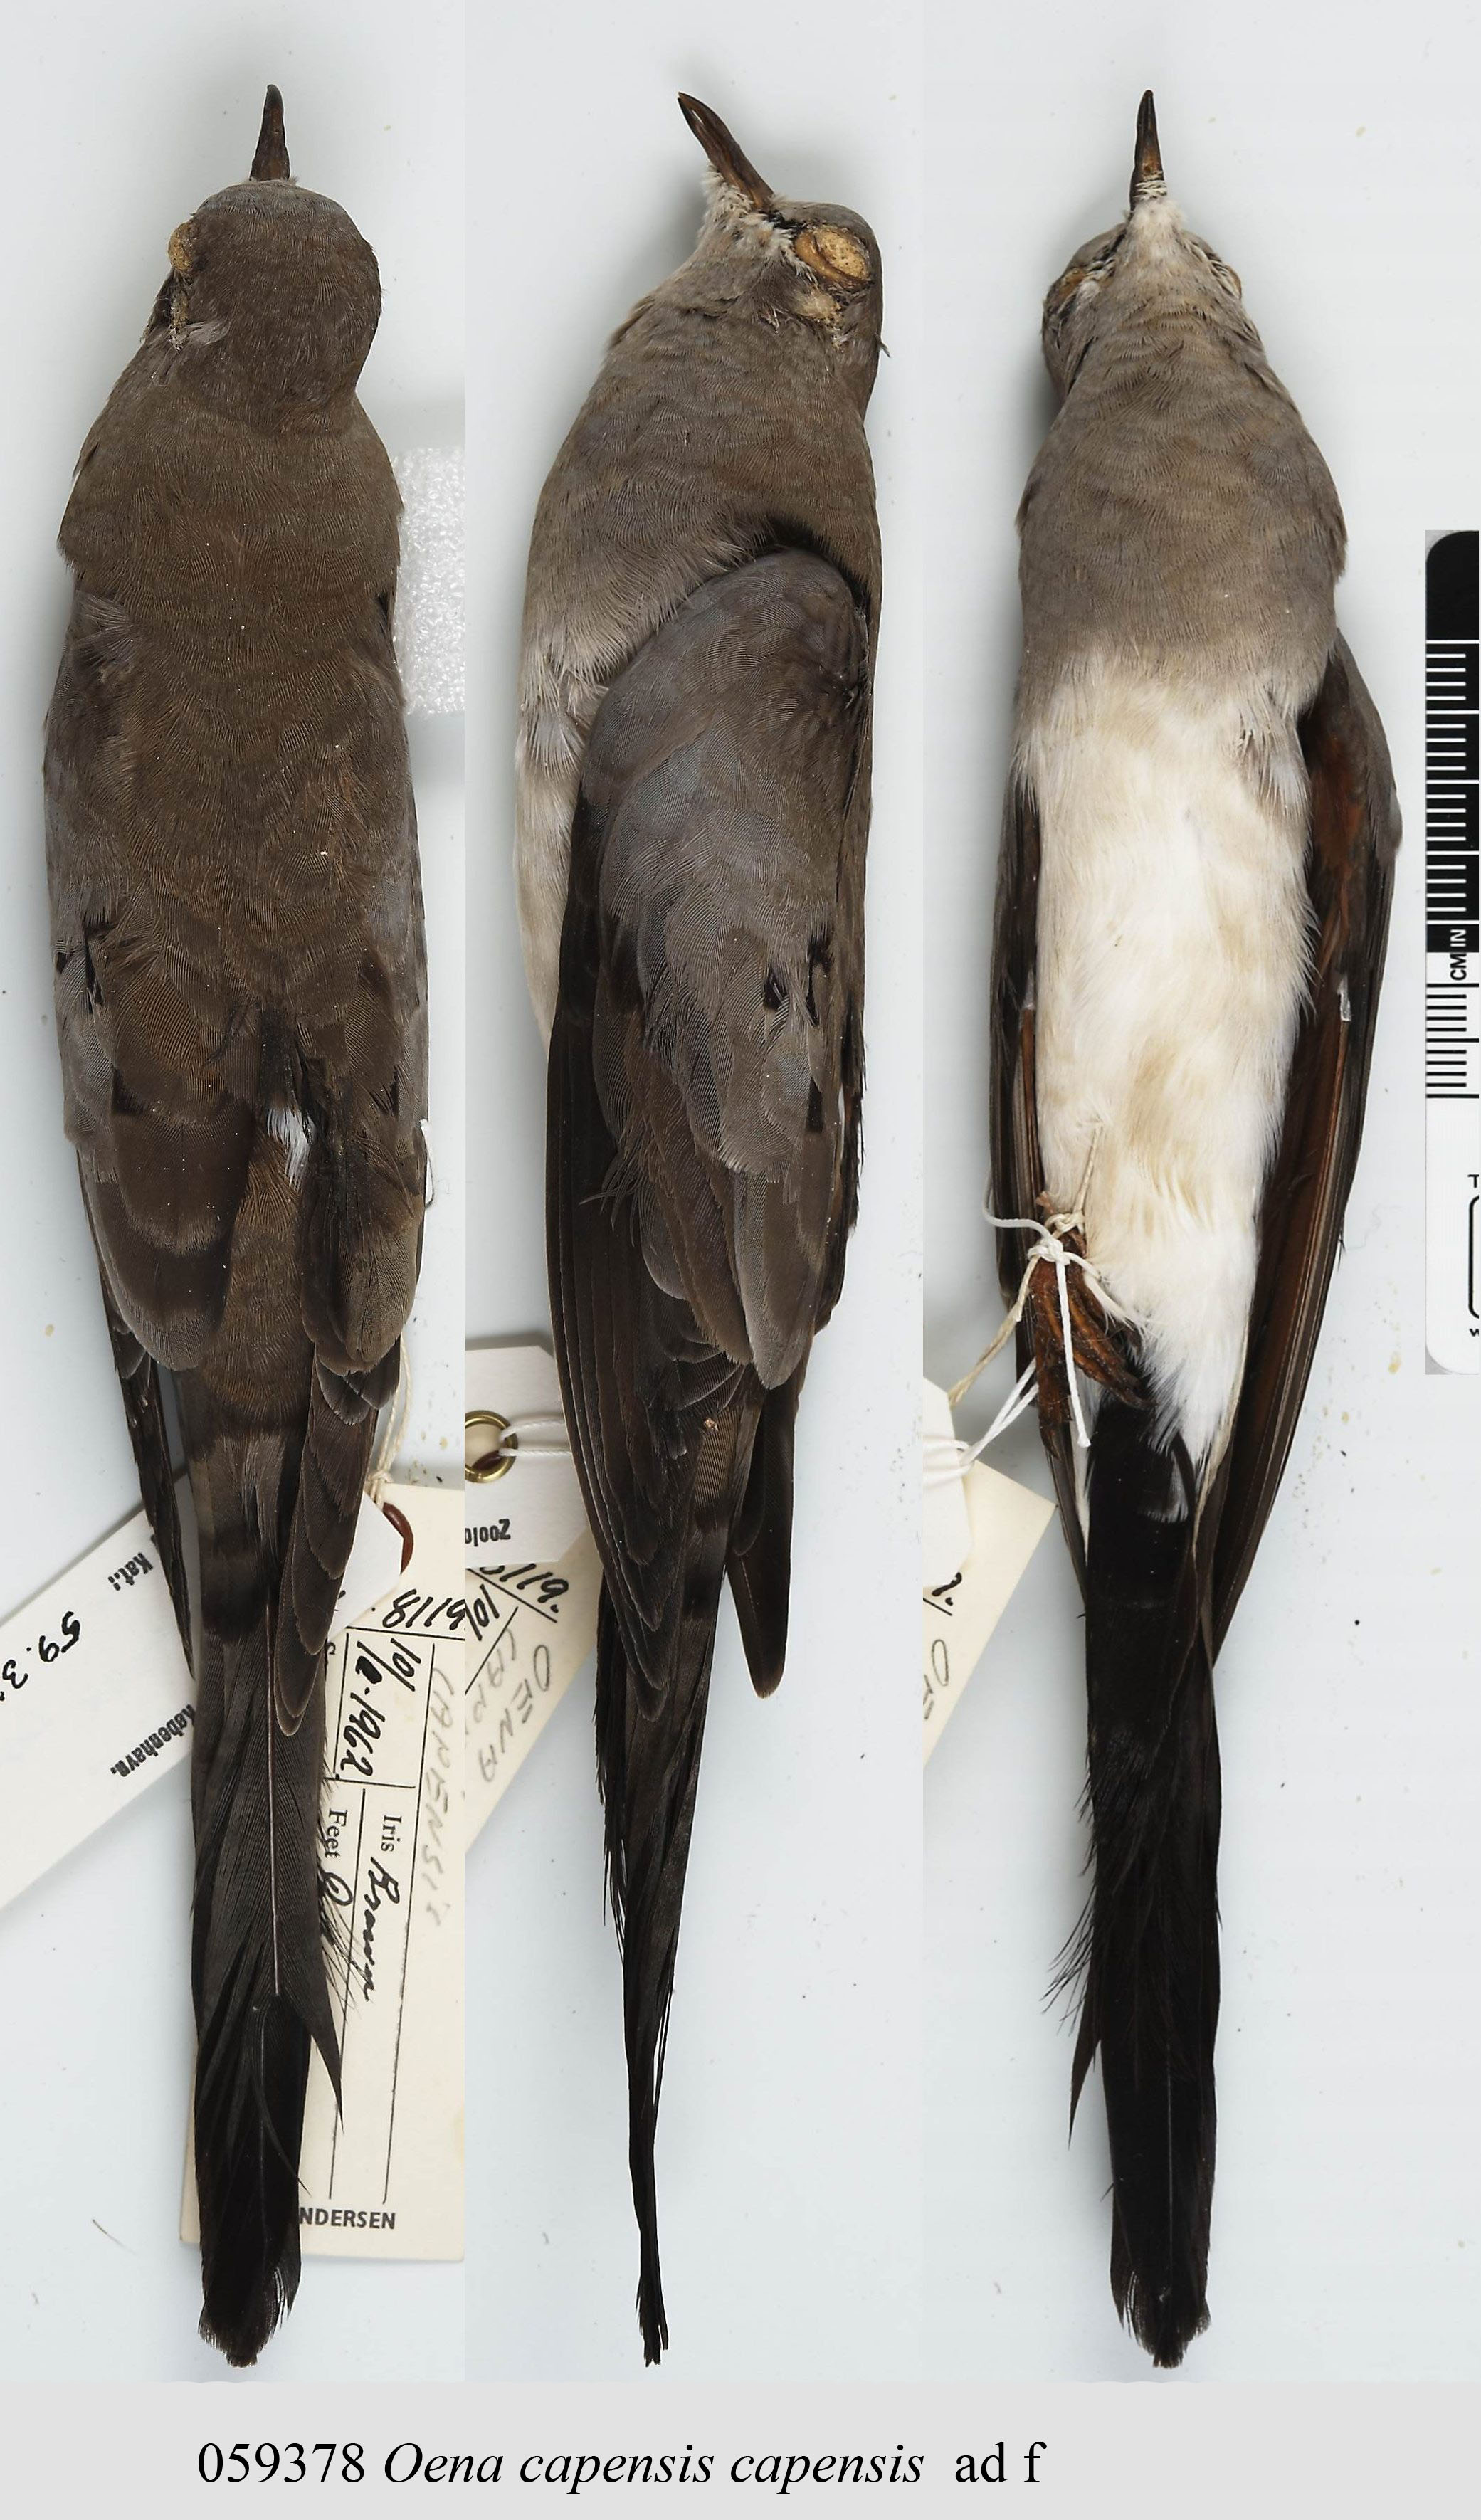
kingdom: Animalia
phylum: Chordata
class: Aves
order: Columbiformes
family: Columbidae
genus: Oena
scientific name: Oena capensis
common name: Namaqua dove
